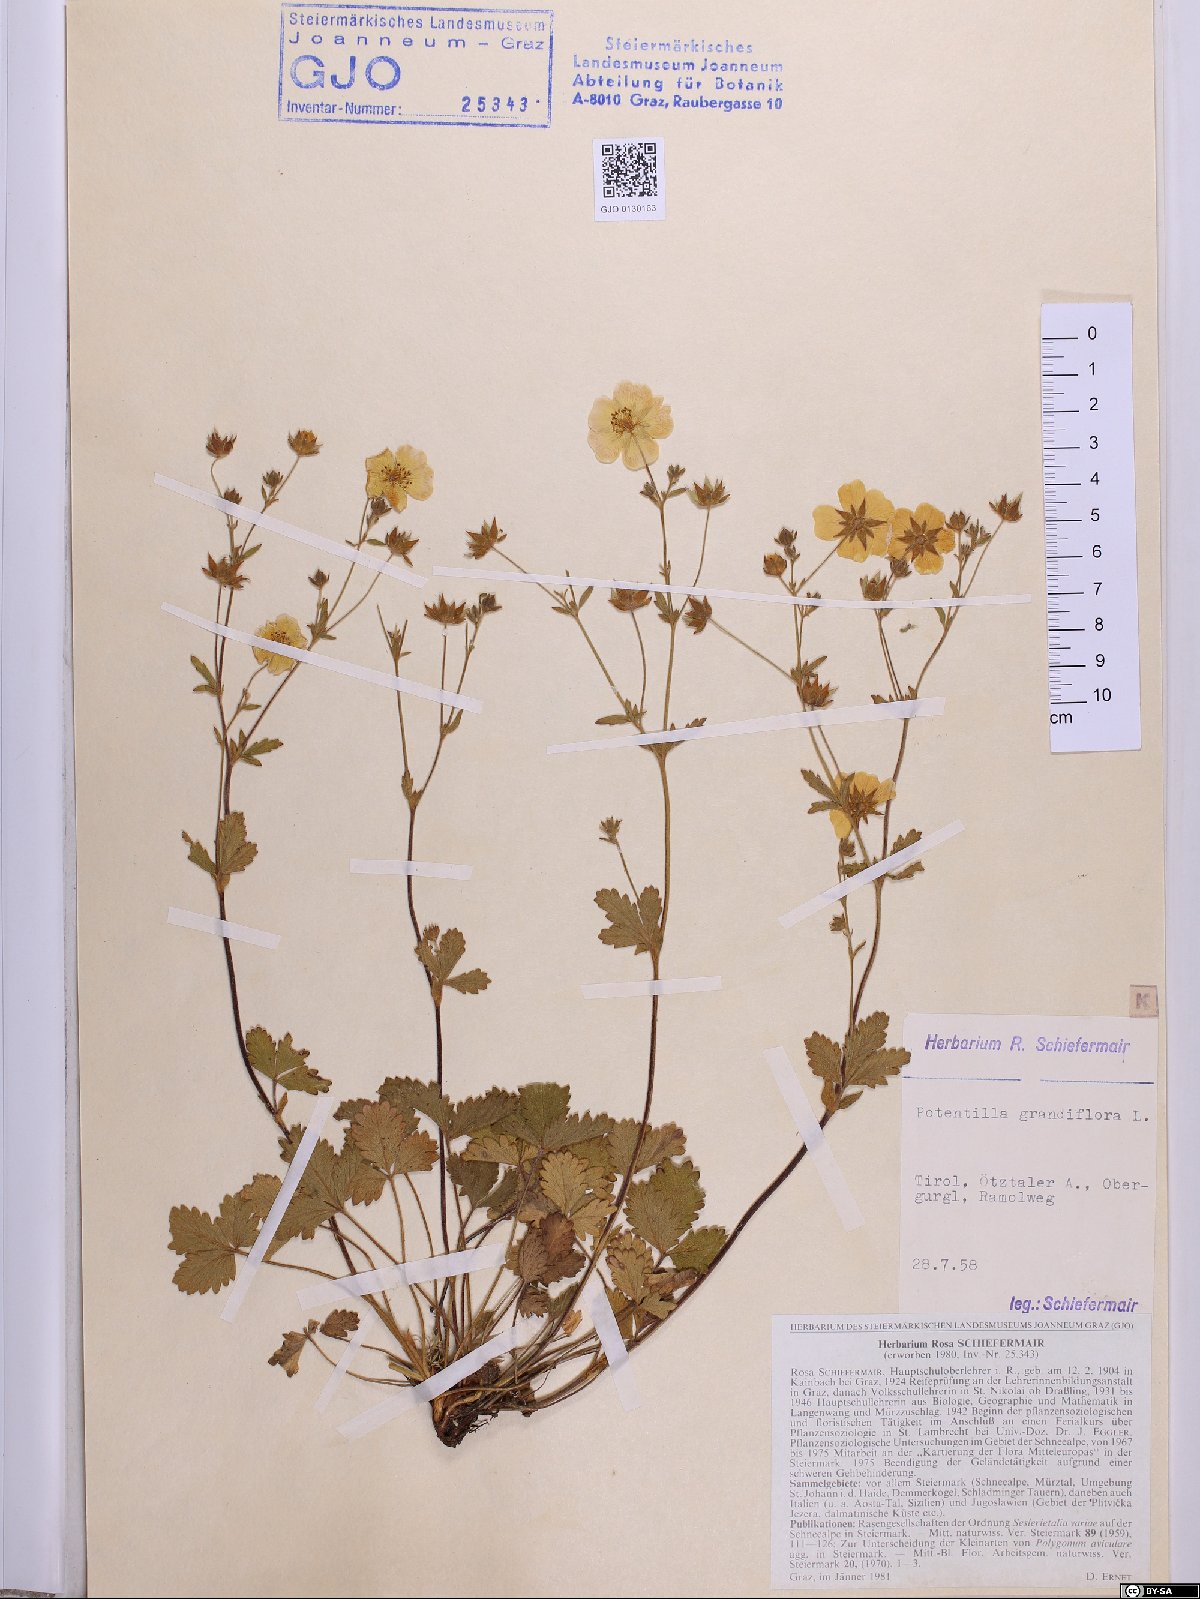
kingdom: Plantae
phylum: Tracheophyta
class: Magnoliopsida
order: Rosales
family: Rosaceae
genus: Potentilla
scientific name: Potentilla grandiflora
